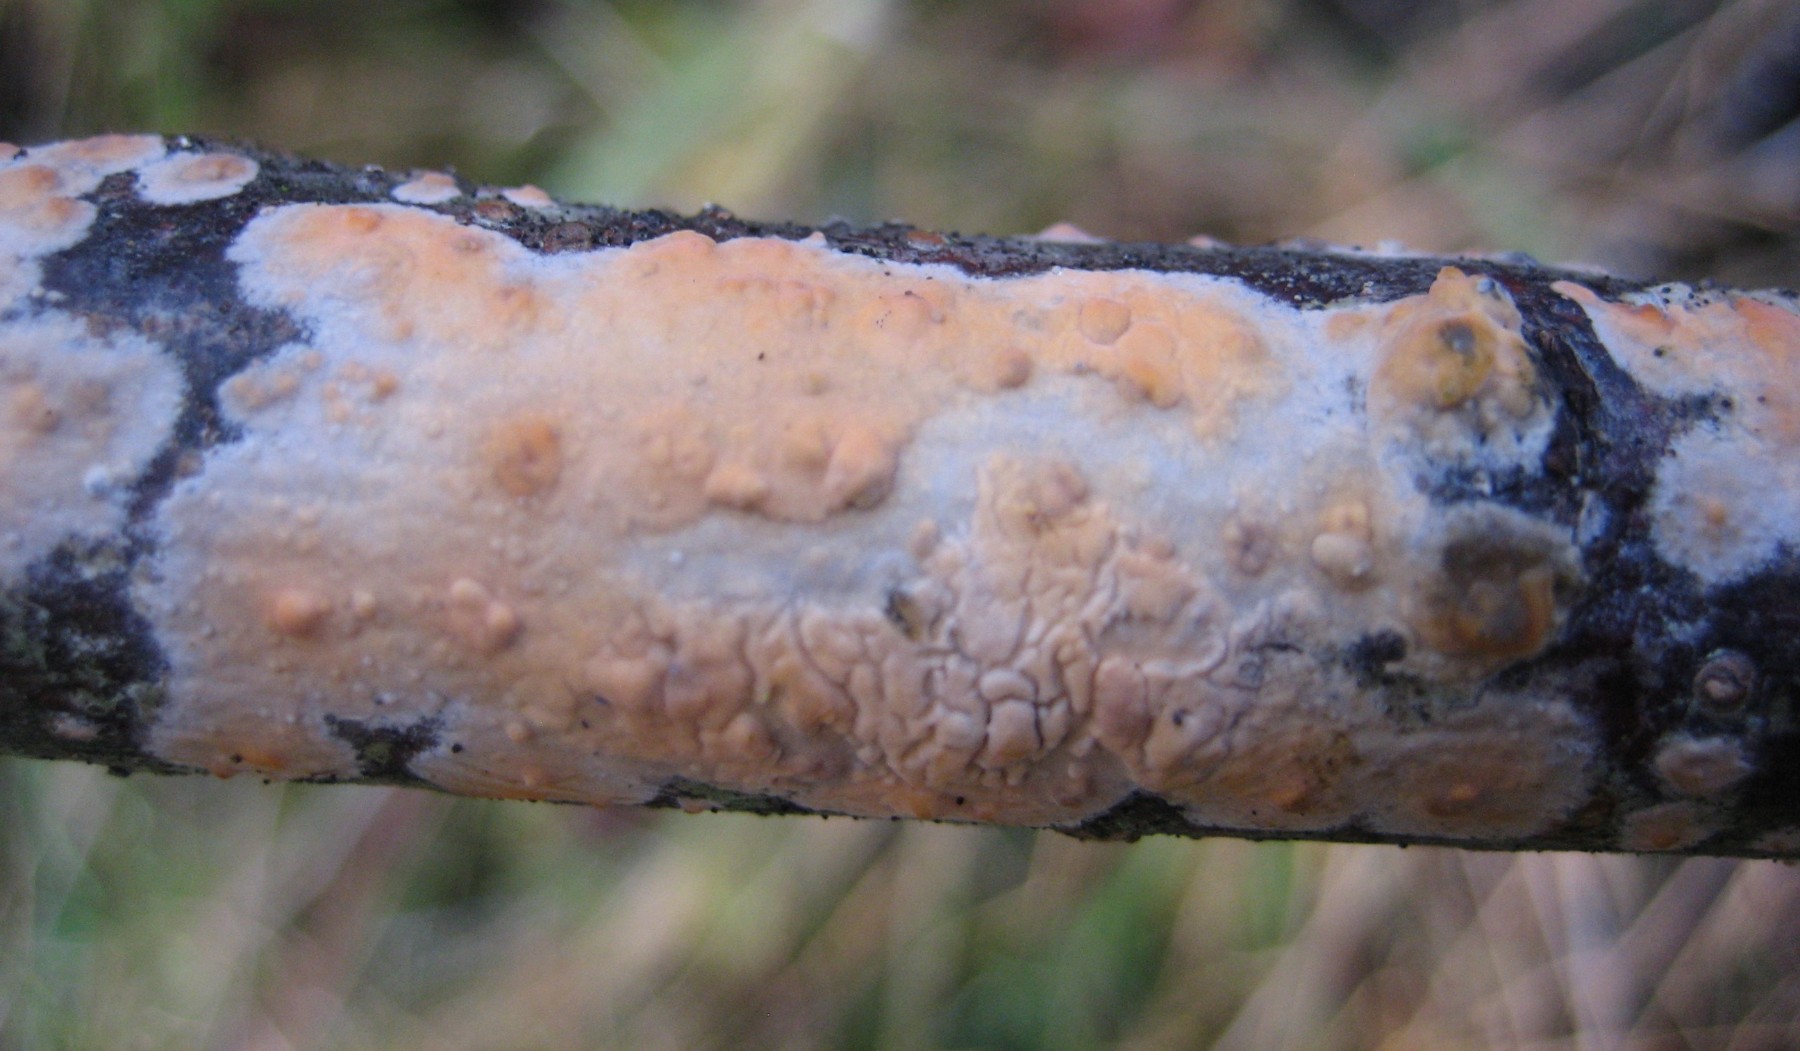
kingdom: Fungi
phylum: Basidiomycota
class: Agaricomycetes
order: Russulales
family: Peniophoraceae
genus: Peniophora
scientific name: Peniophora incarnata
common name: laksefarvet voksskind
